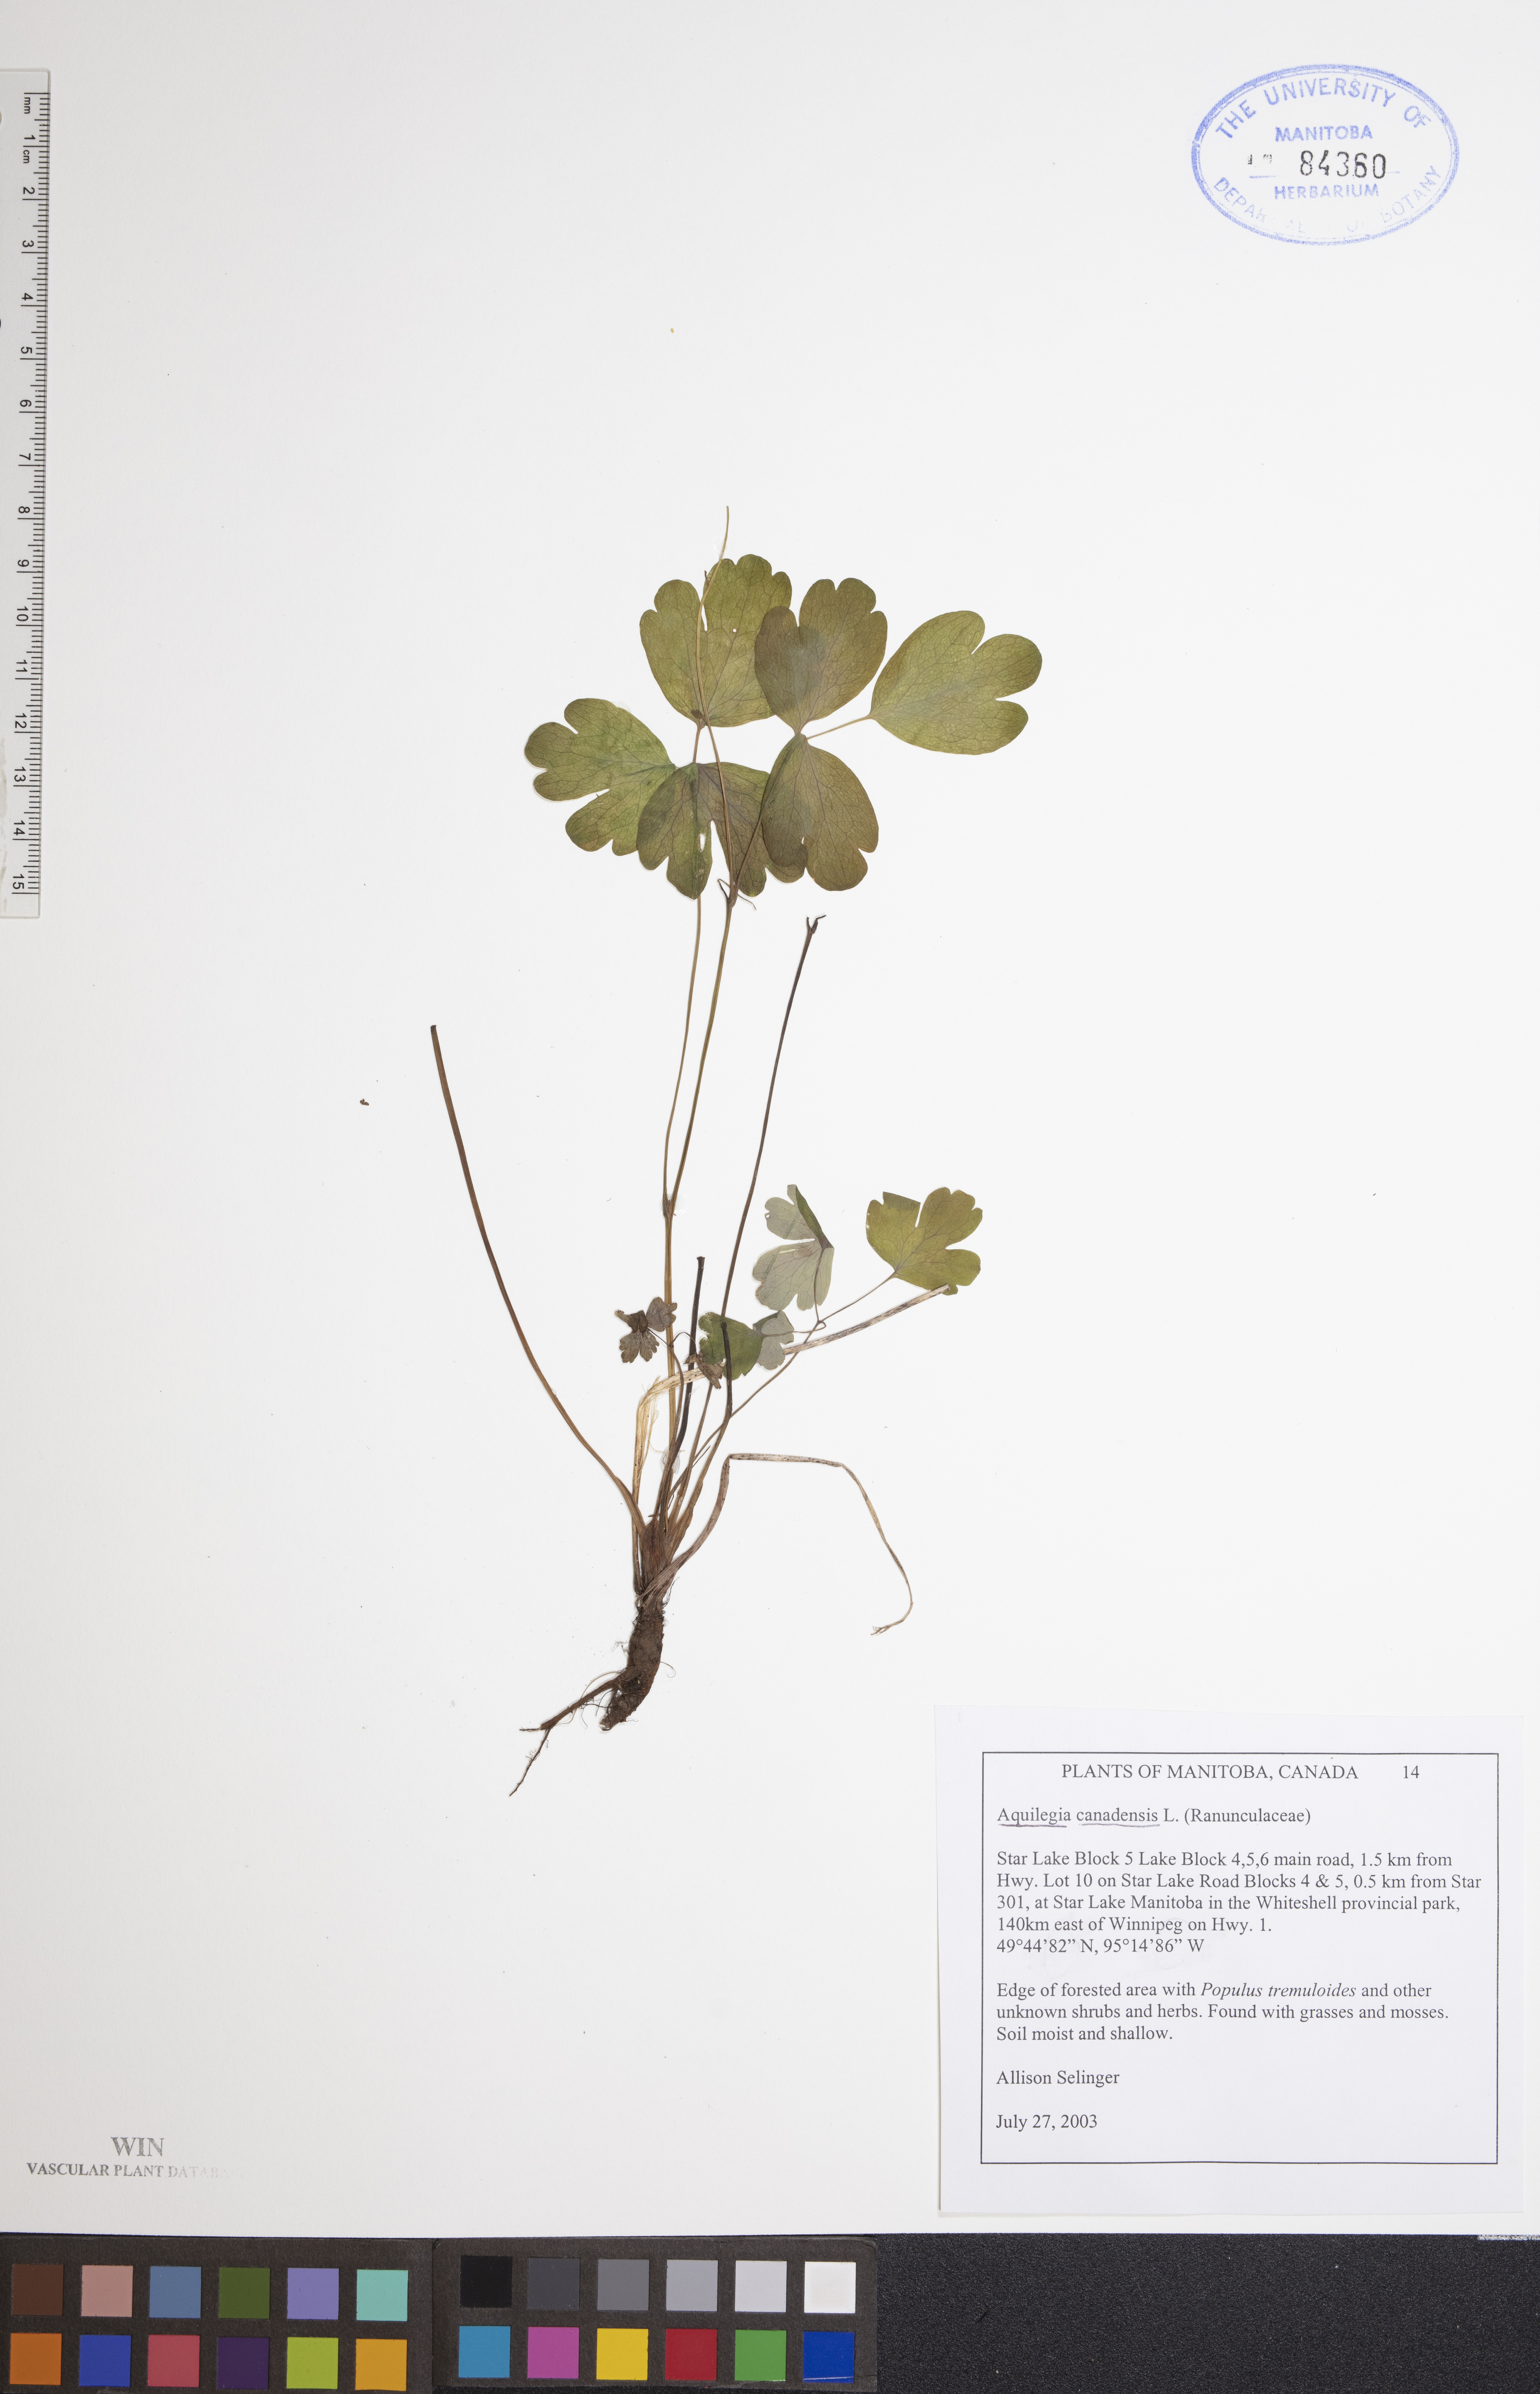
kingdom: Plantae
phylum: Tracheophyta
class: Magnoliopsida
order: Ranunculales
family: Ranunculaceae
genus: Aquilegia
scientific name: Aquilegia canadensis
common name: American columbine
